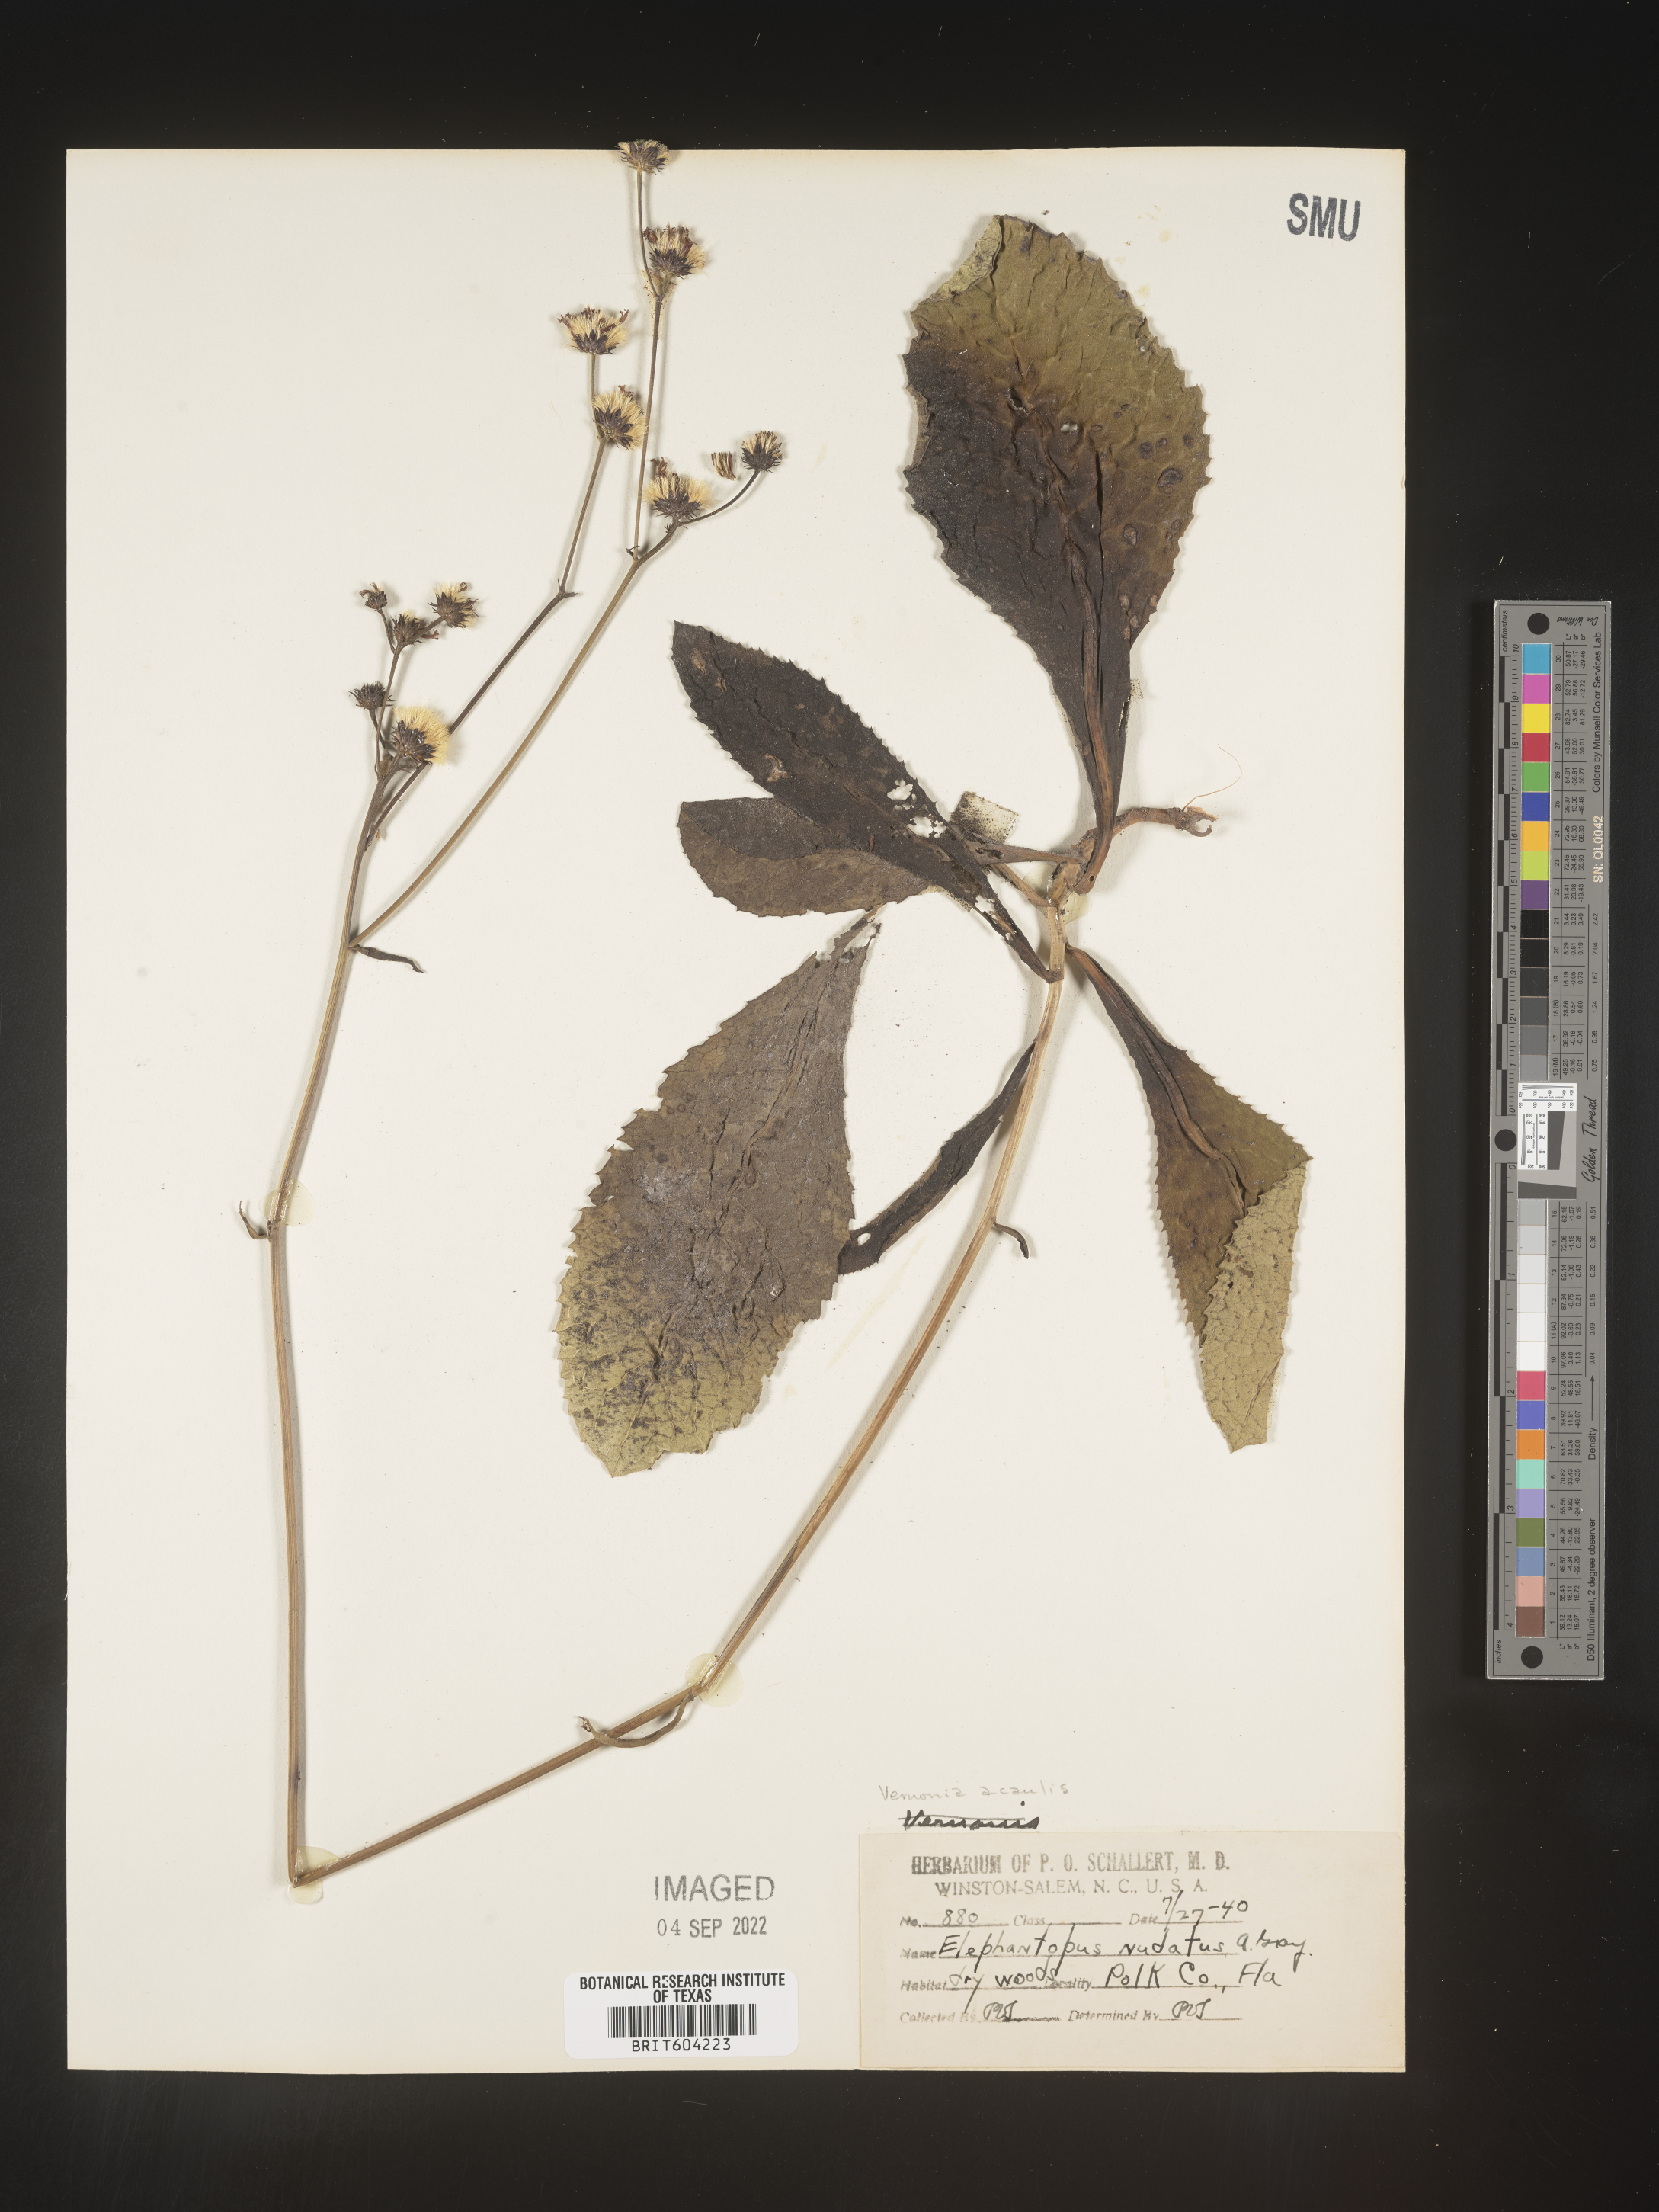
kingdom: Plantae
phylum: Tracheophyta
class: Magnoliopsida
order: Asterales
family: Asteraceae
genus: Vernonia
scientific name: Vernonia acaulis
